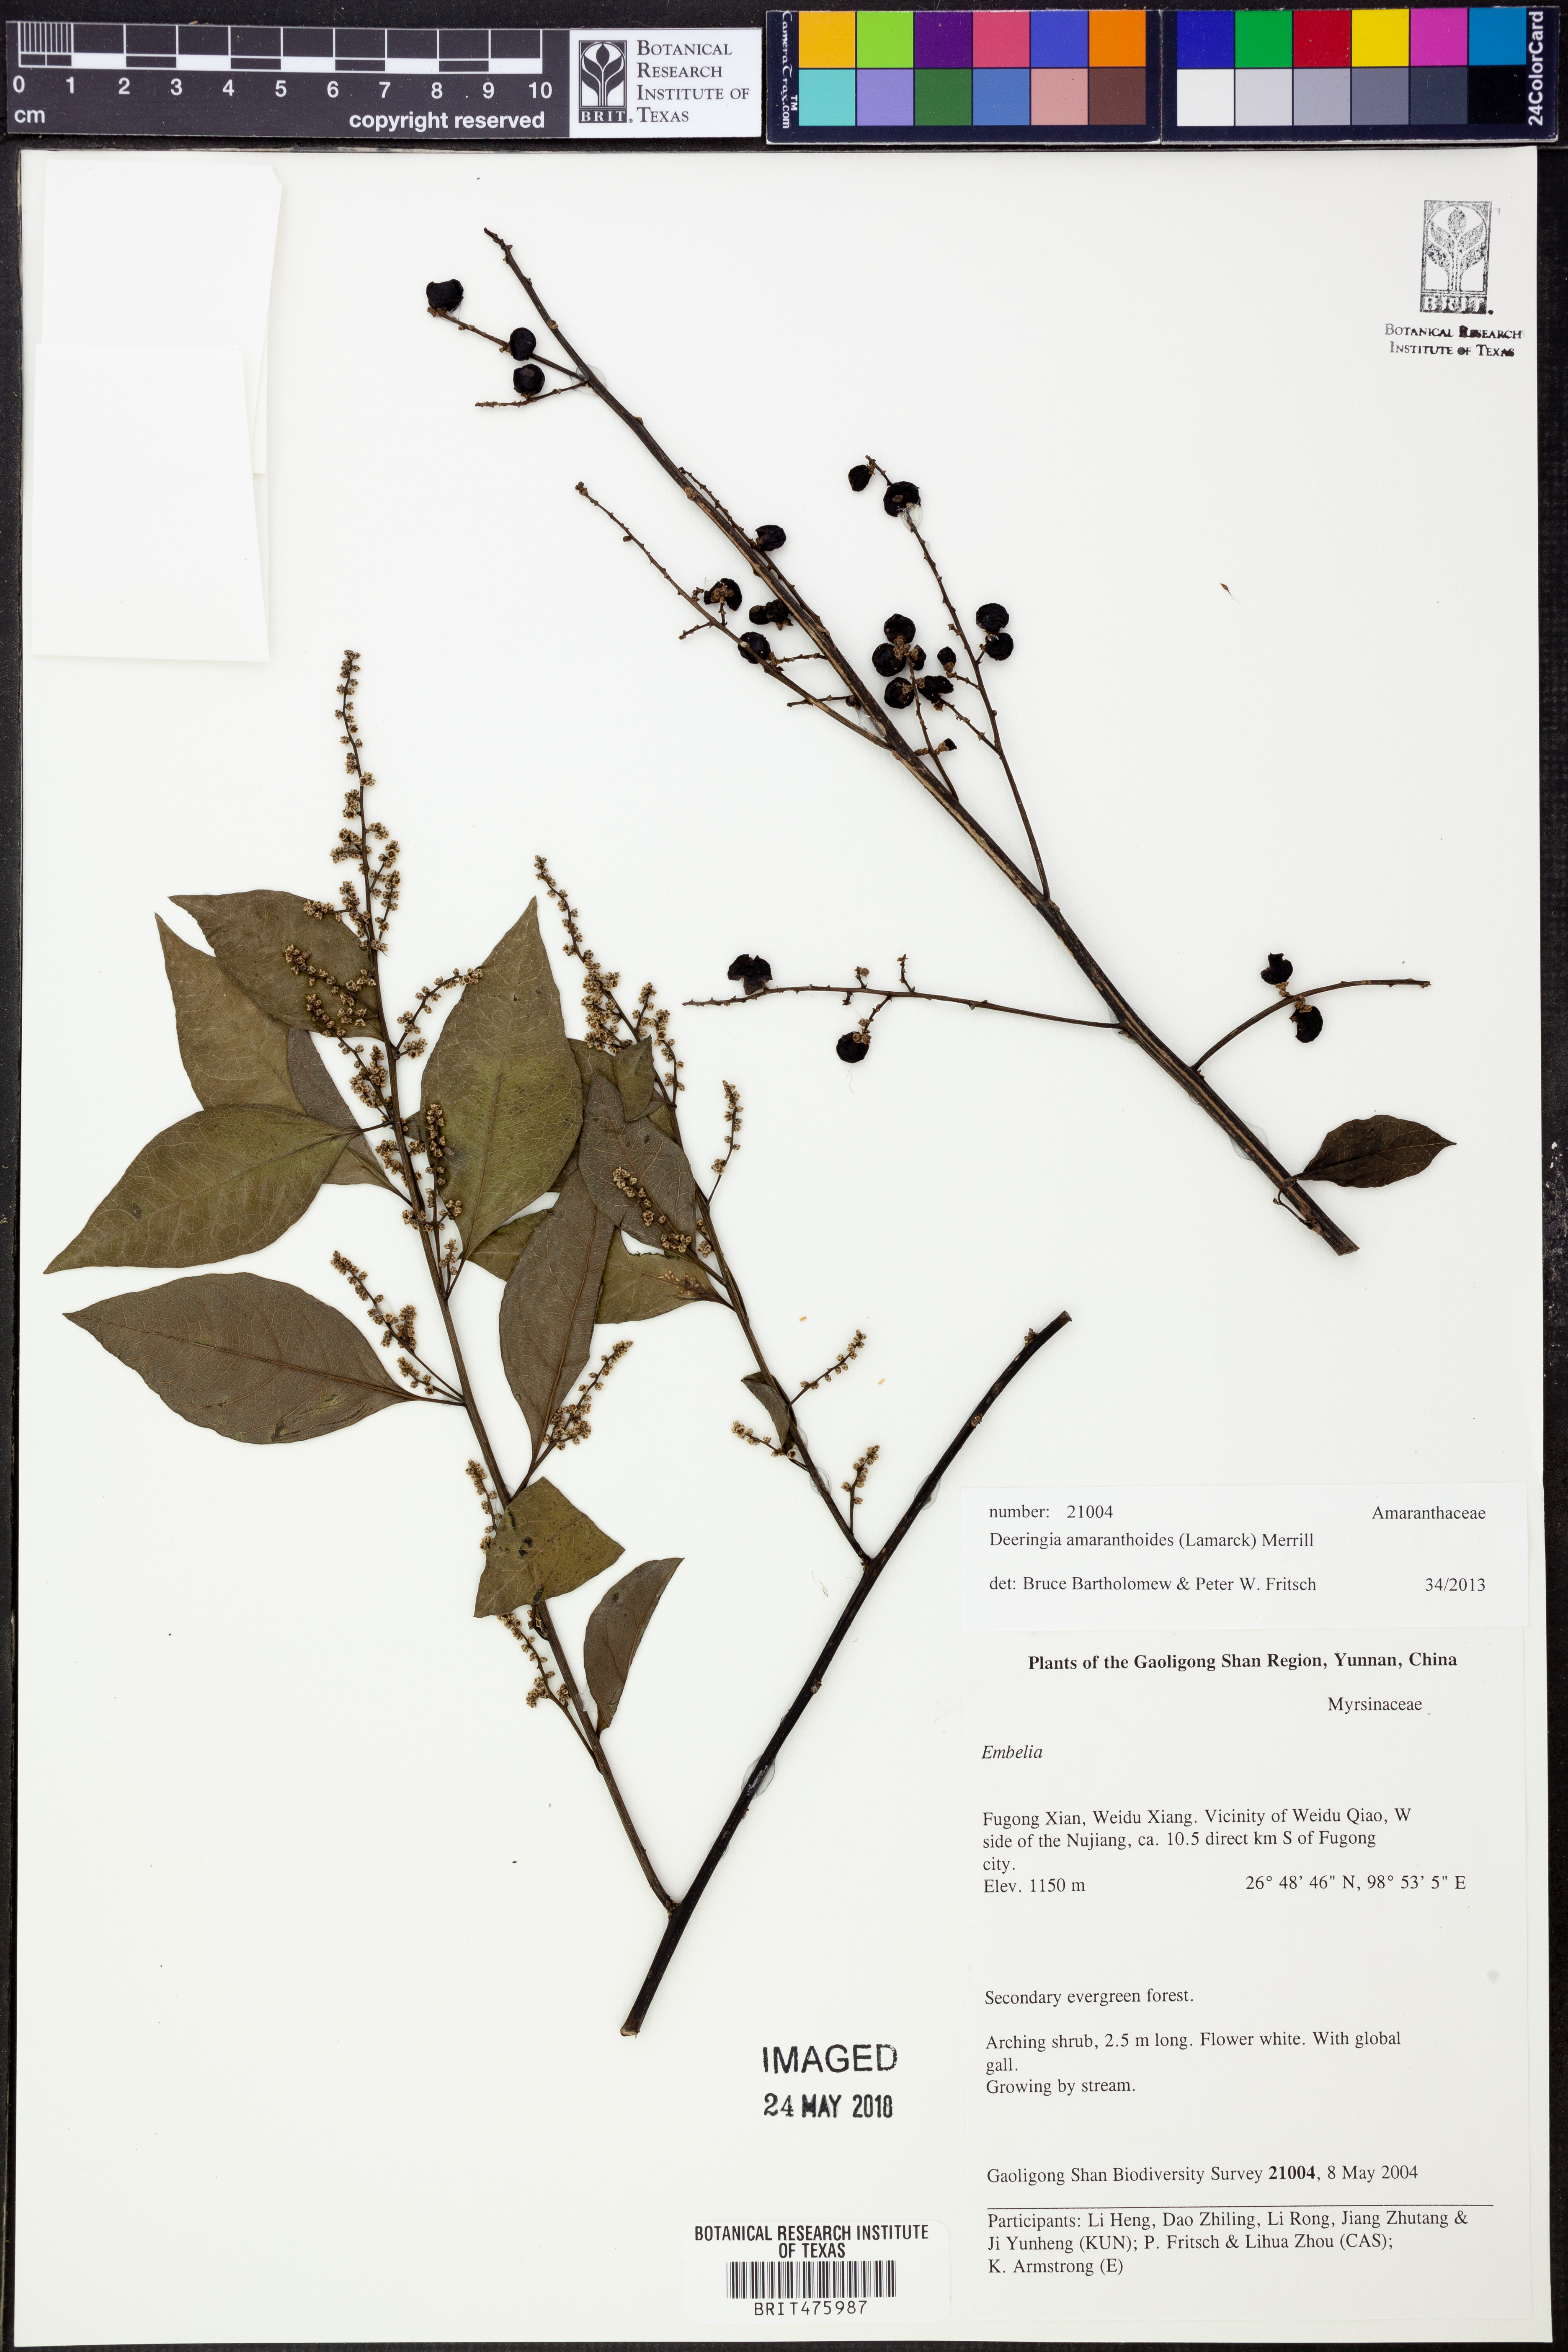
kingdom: Plantae
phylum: Tracheophyta
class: Liliopsida
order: Asparagales
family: Orchidaceae
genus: Dendrobium
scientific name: Dendrobium
